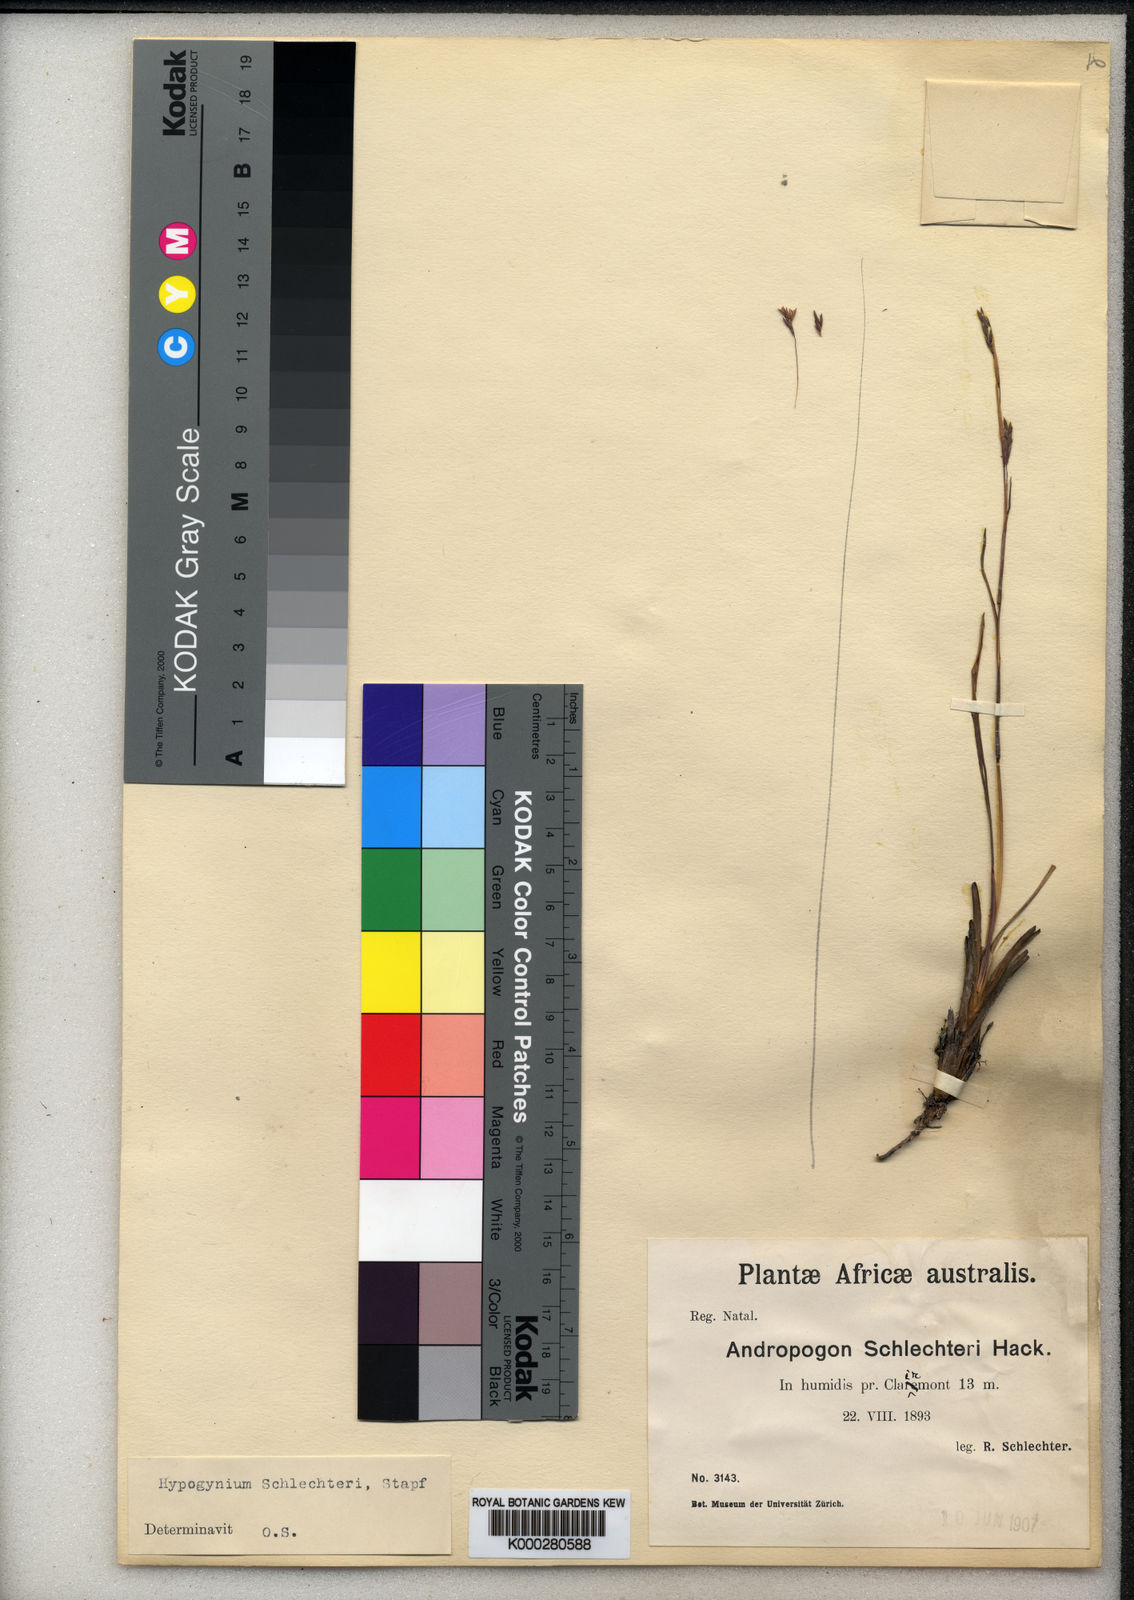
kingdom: Plantae
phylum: Tracheophyta
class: Liliopsida
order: Poales
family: Poaceae
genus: Andropogon
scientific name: Andropogon festuciformis
